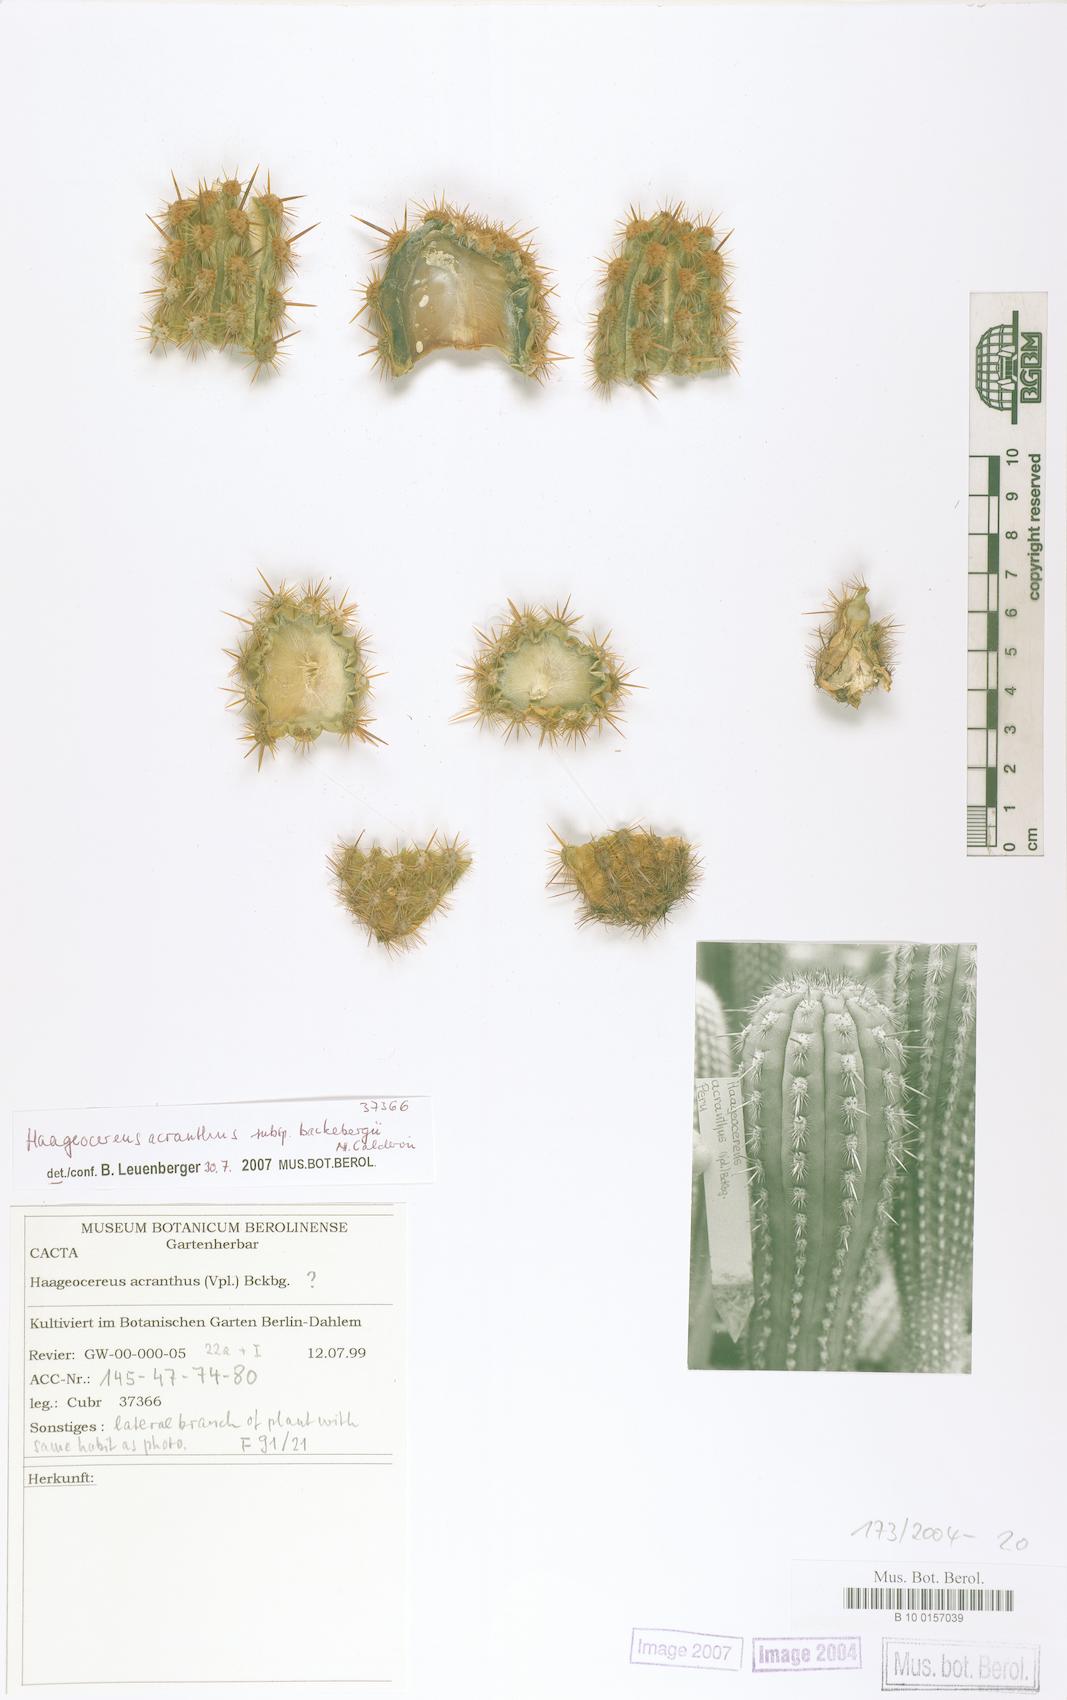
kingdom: Plantae
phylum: Tracheophyta
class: Magnoliopsida
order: Caryophyllales
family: Cactaceae
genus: Haageocereus
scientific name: Haageocereus acranthus
